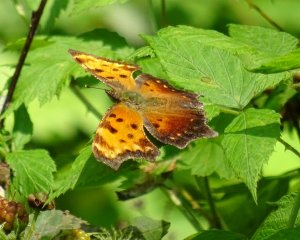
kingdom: Animalia
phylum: Arthropoda
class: Insecta
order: Lepidoptera
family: Nymphalidae
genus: Polygonia
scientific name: Polygonia comma
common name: Eastern Comma
